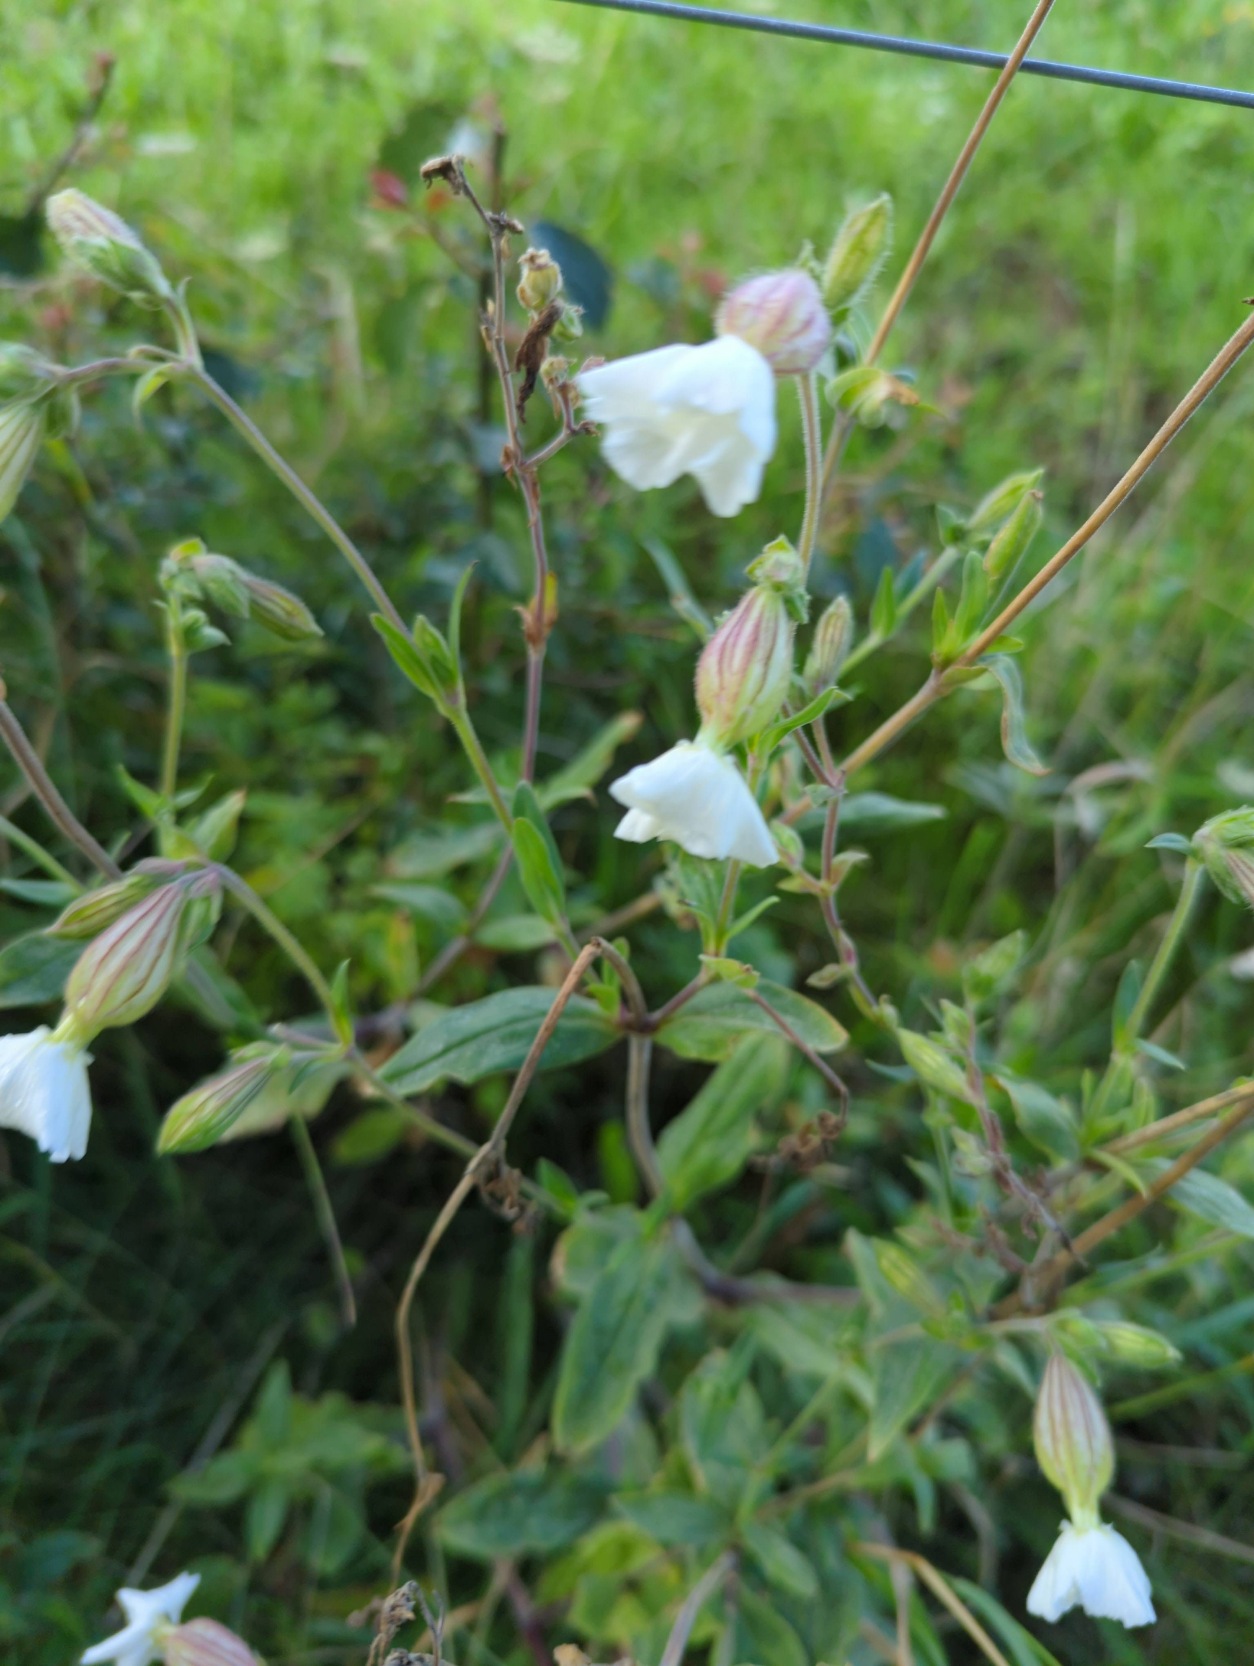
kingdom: Plantae
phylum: Tracheophyta
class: Magnoliopsida
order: Caryophyllales
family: Caryophyllaceae
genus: Silene
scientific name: Silene latifolia
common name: Aftenpragtstjerne
